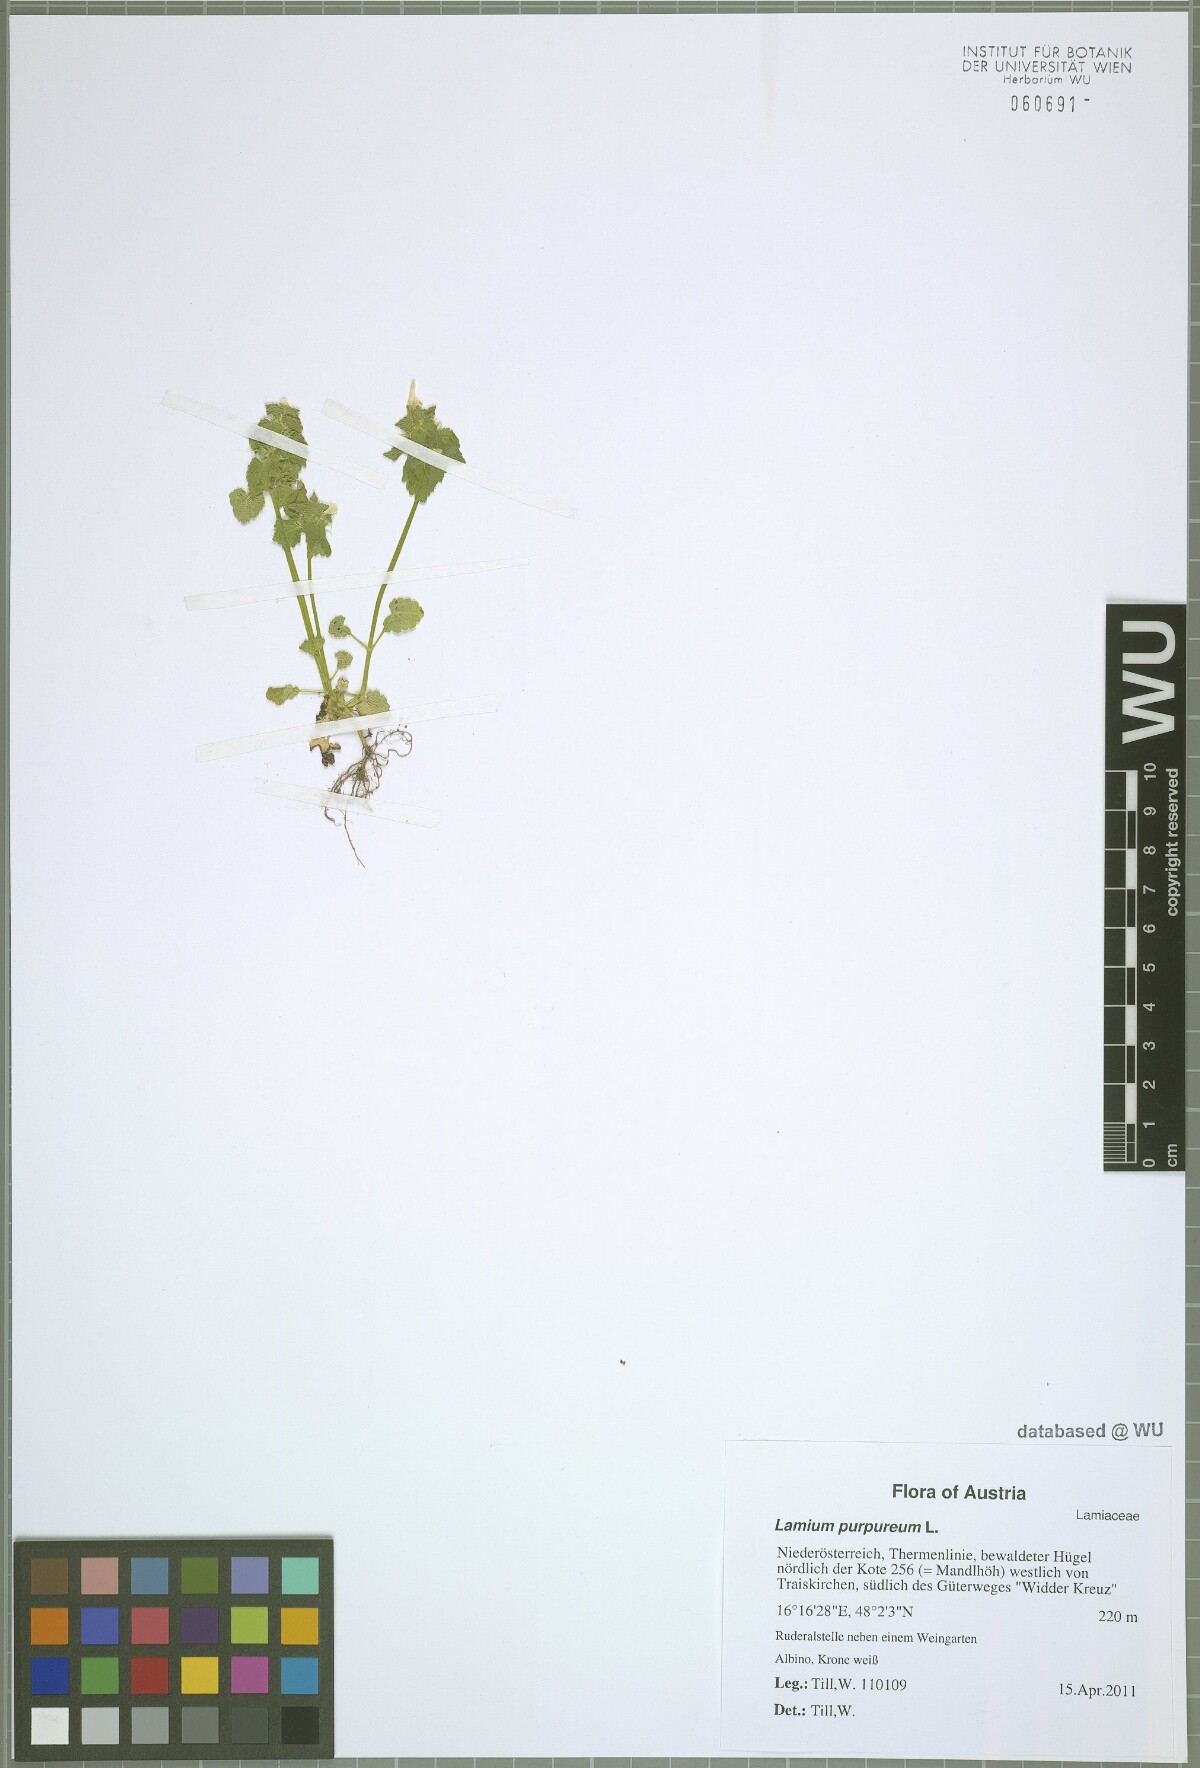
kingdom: Plantae
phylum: Tracheophyta
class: Magnoliopsida
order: Lamiales
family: Lamiaceae
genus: Lamium
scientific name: Lamium purpureum
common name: Red dead-nettle
